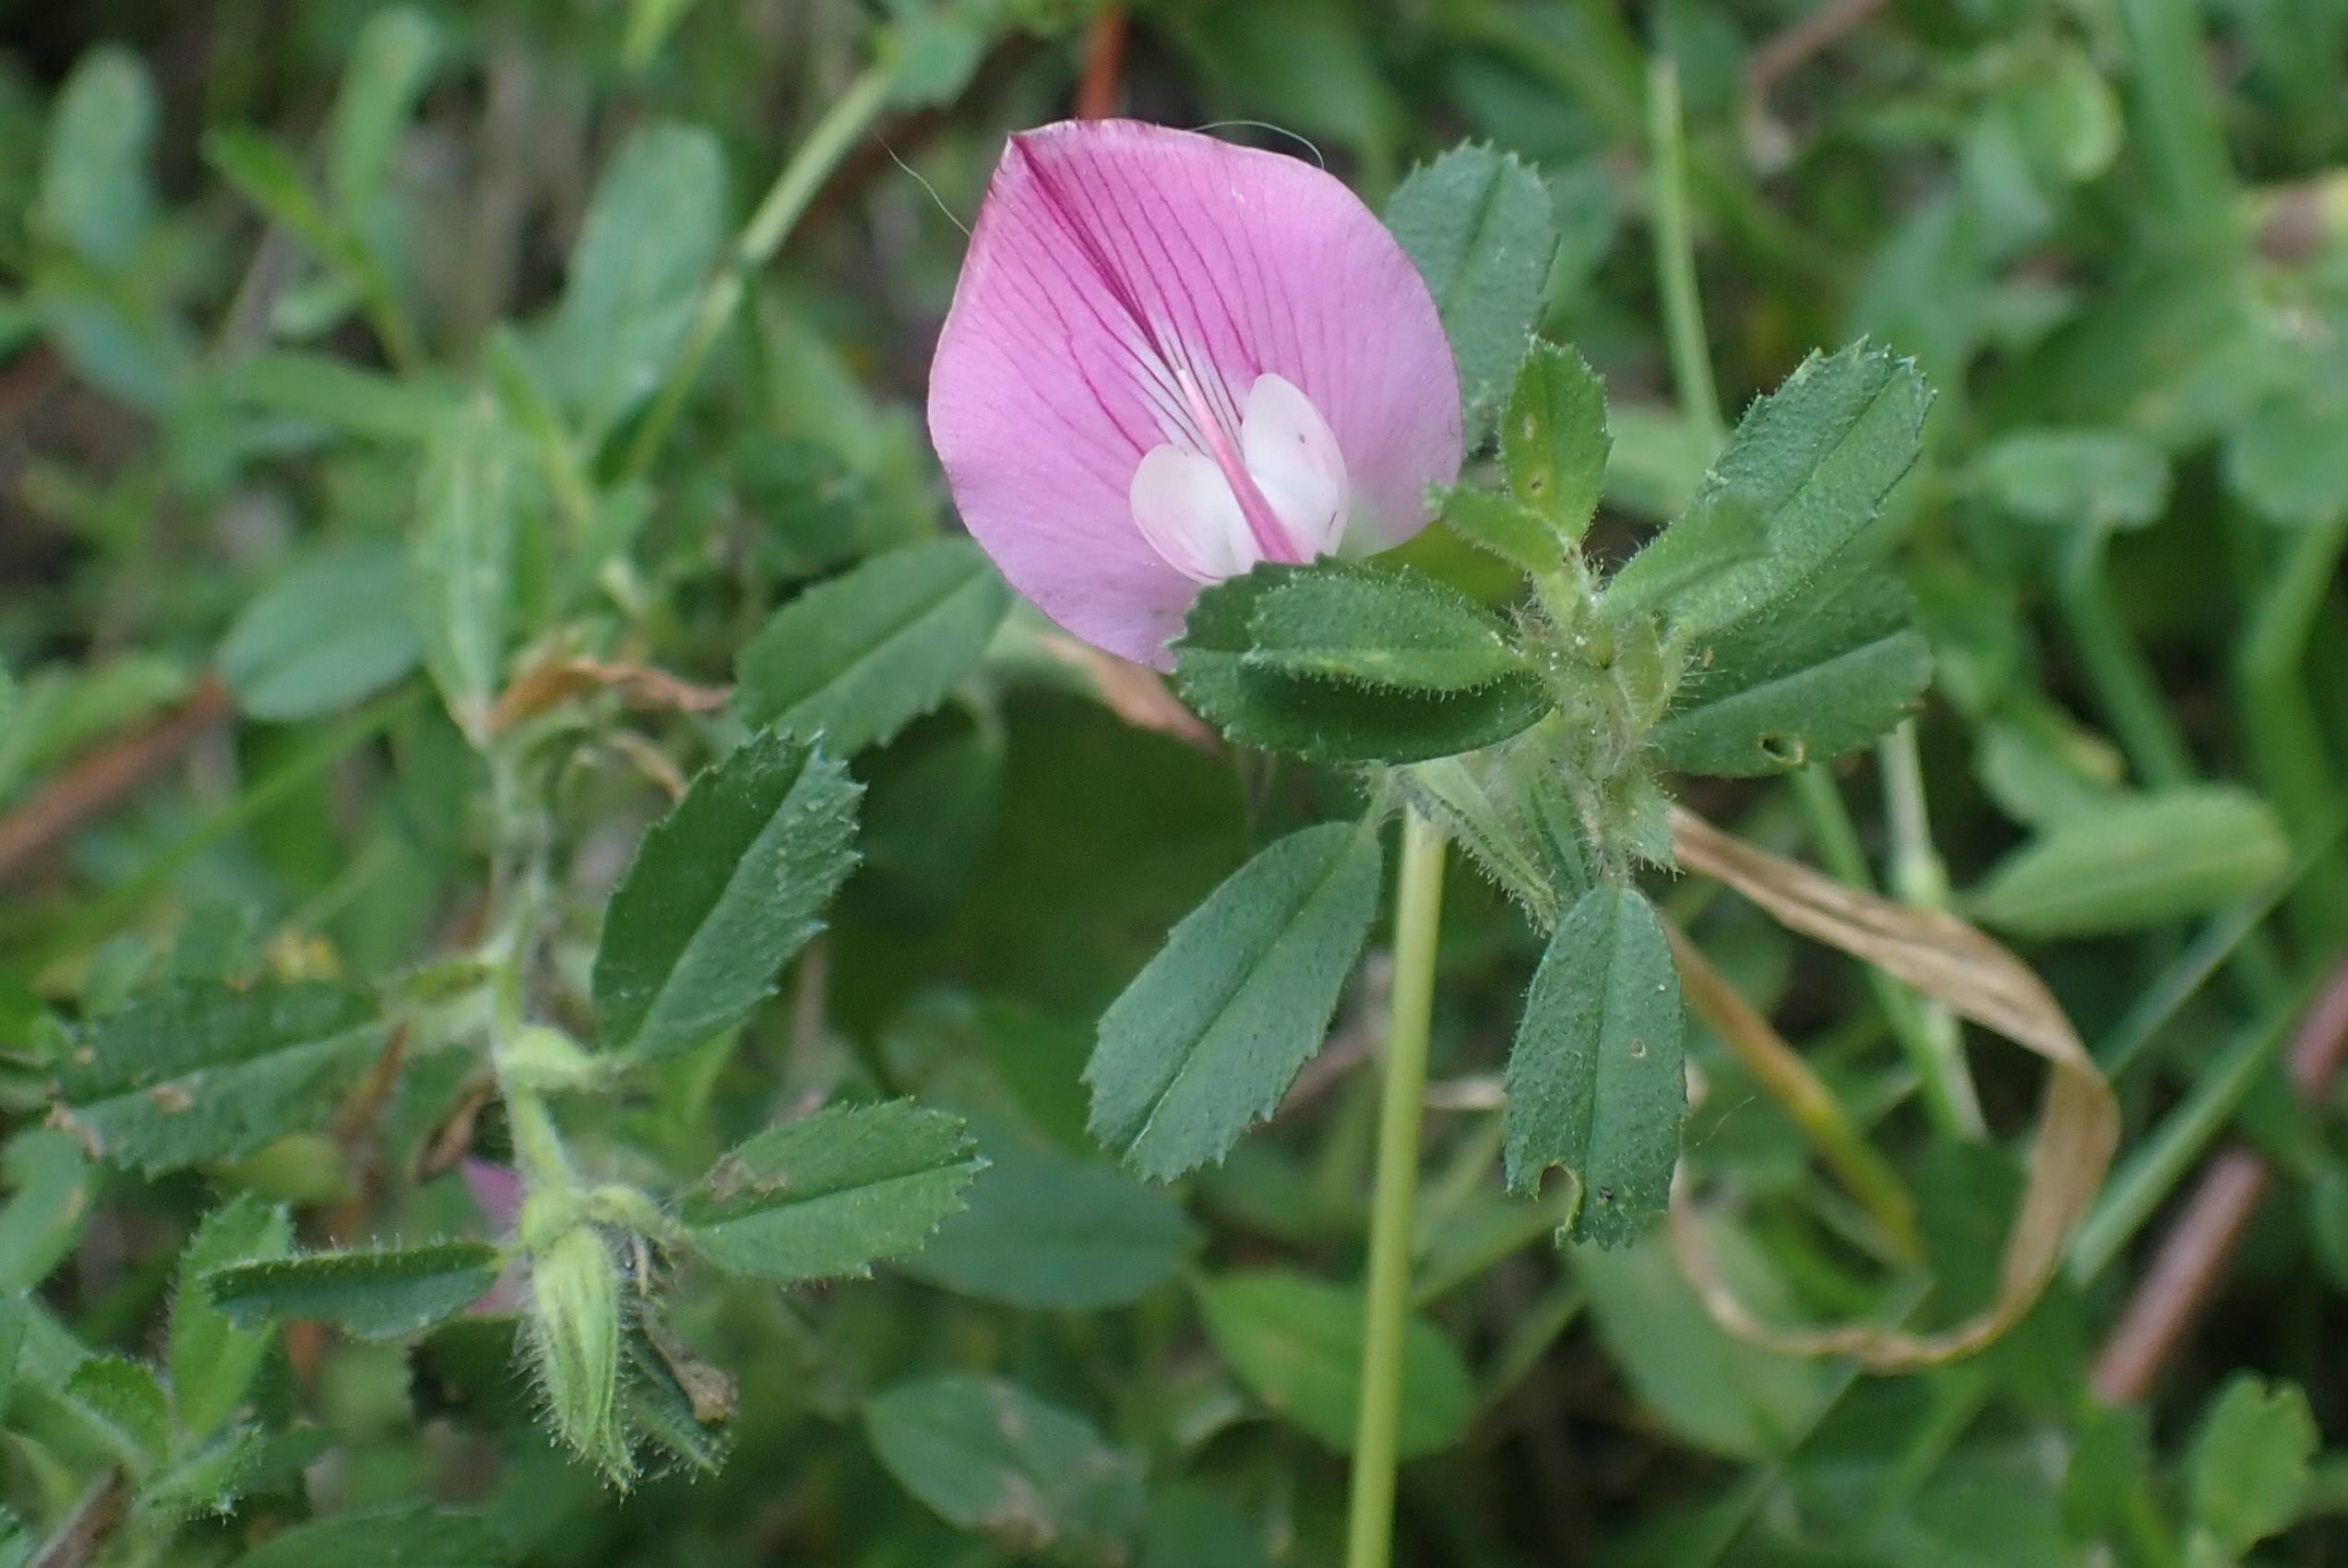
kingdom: Plantae
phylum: Tracheophyta
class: Magnoliopsida
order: Fabales
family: Fabaceae
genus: Ononis
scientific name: Ononis spinosa
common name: Mark-krageklo
